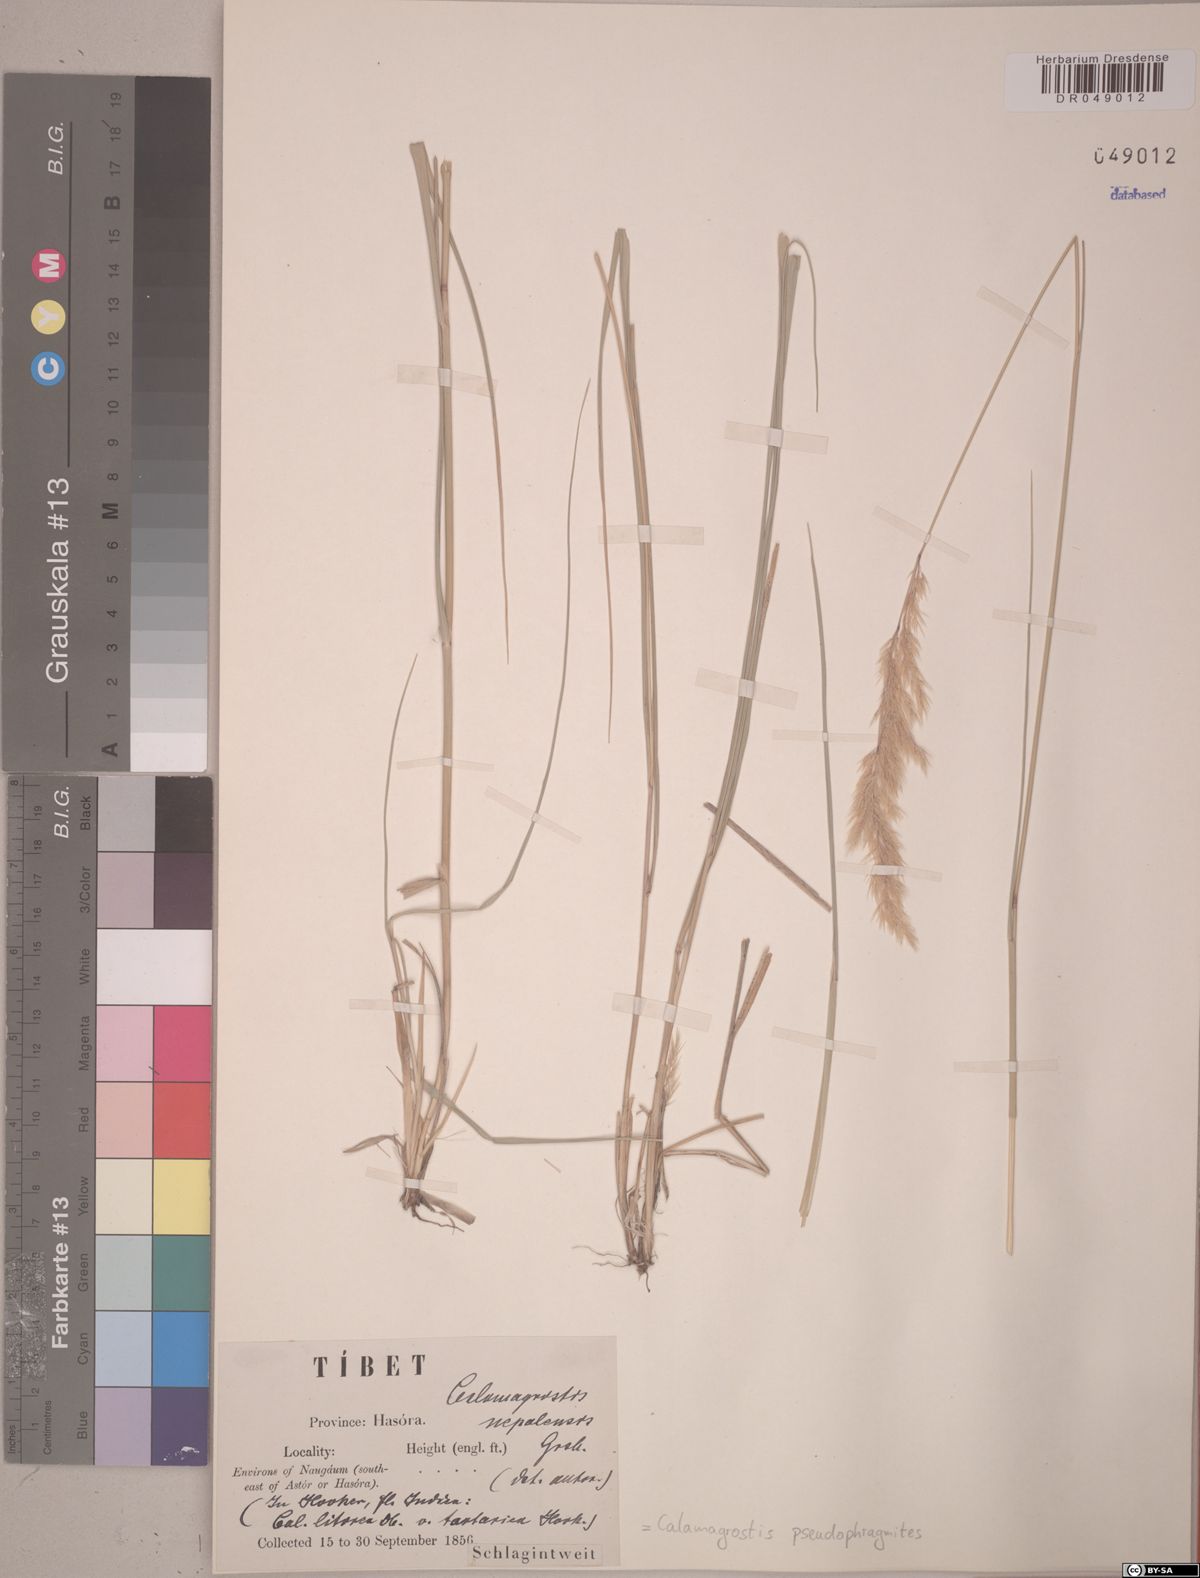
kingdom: Plantae
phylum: Tracheophyta
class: Liliopsida
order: Poales
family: Poaceae
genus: Calamagrostis
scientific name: Calamagrostis pseudophragmites
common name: Coastal small-reed
